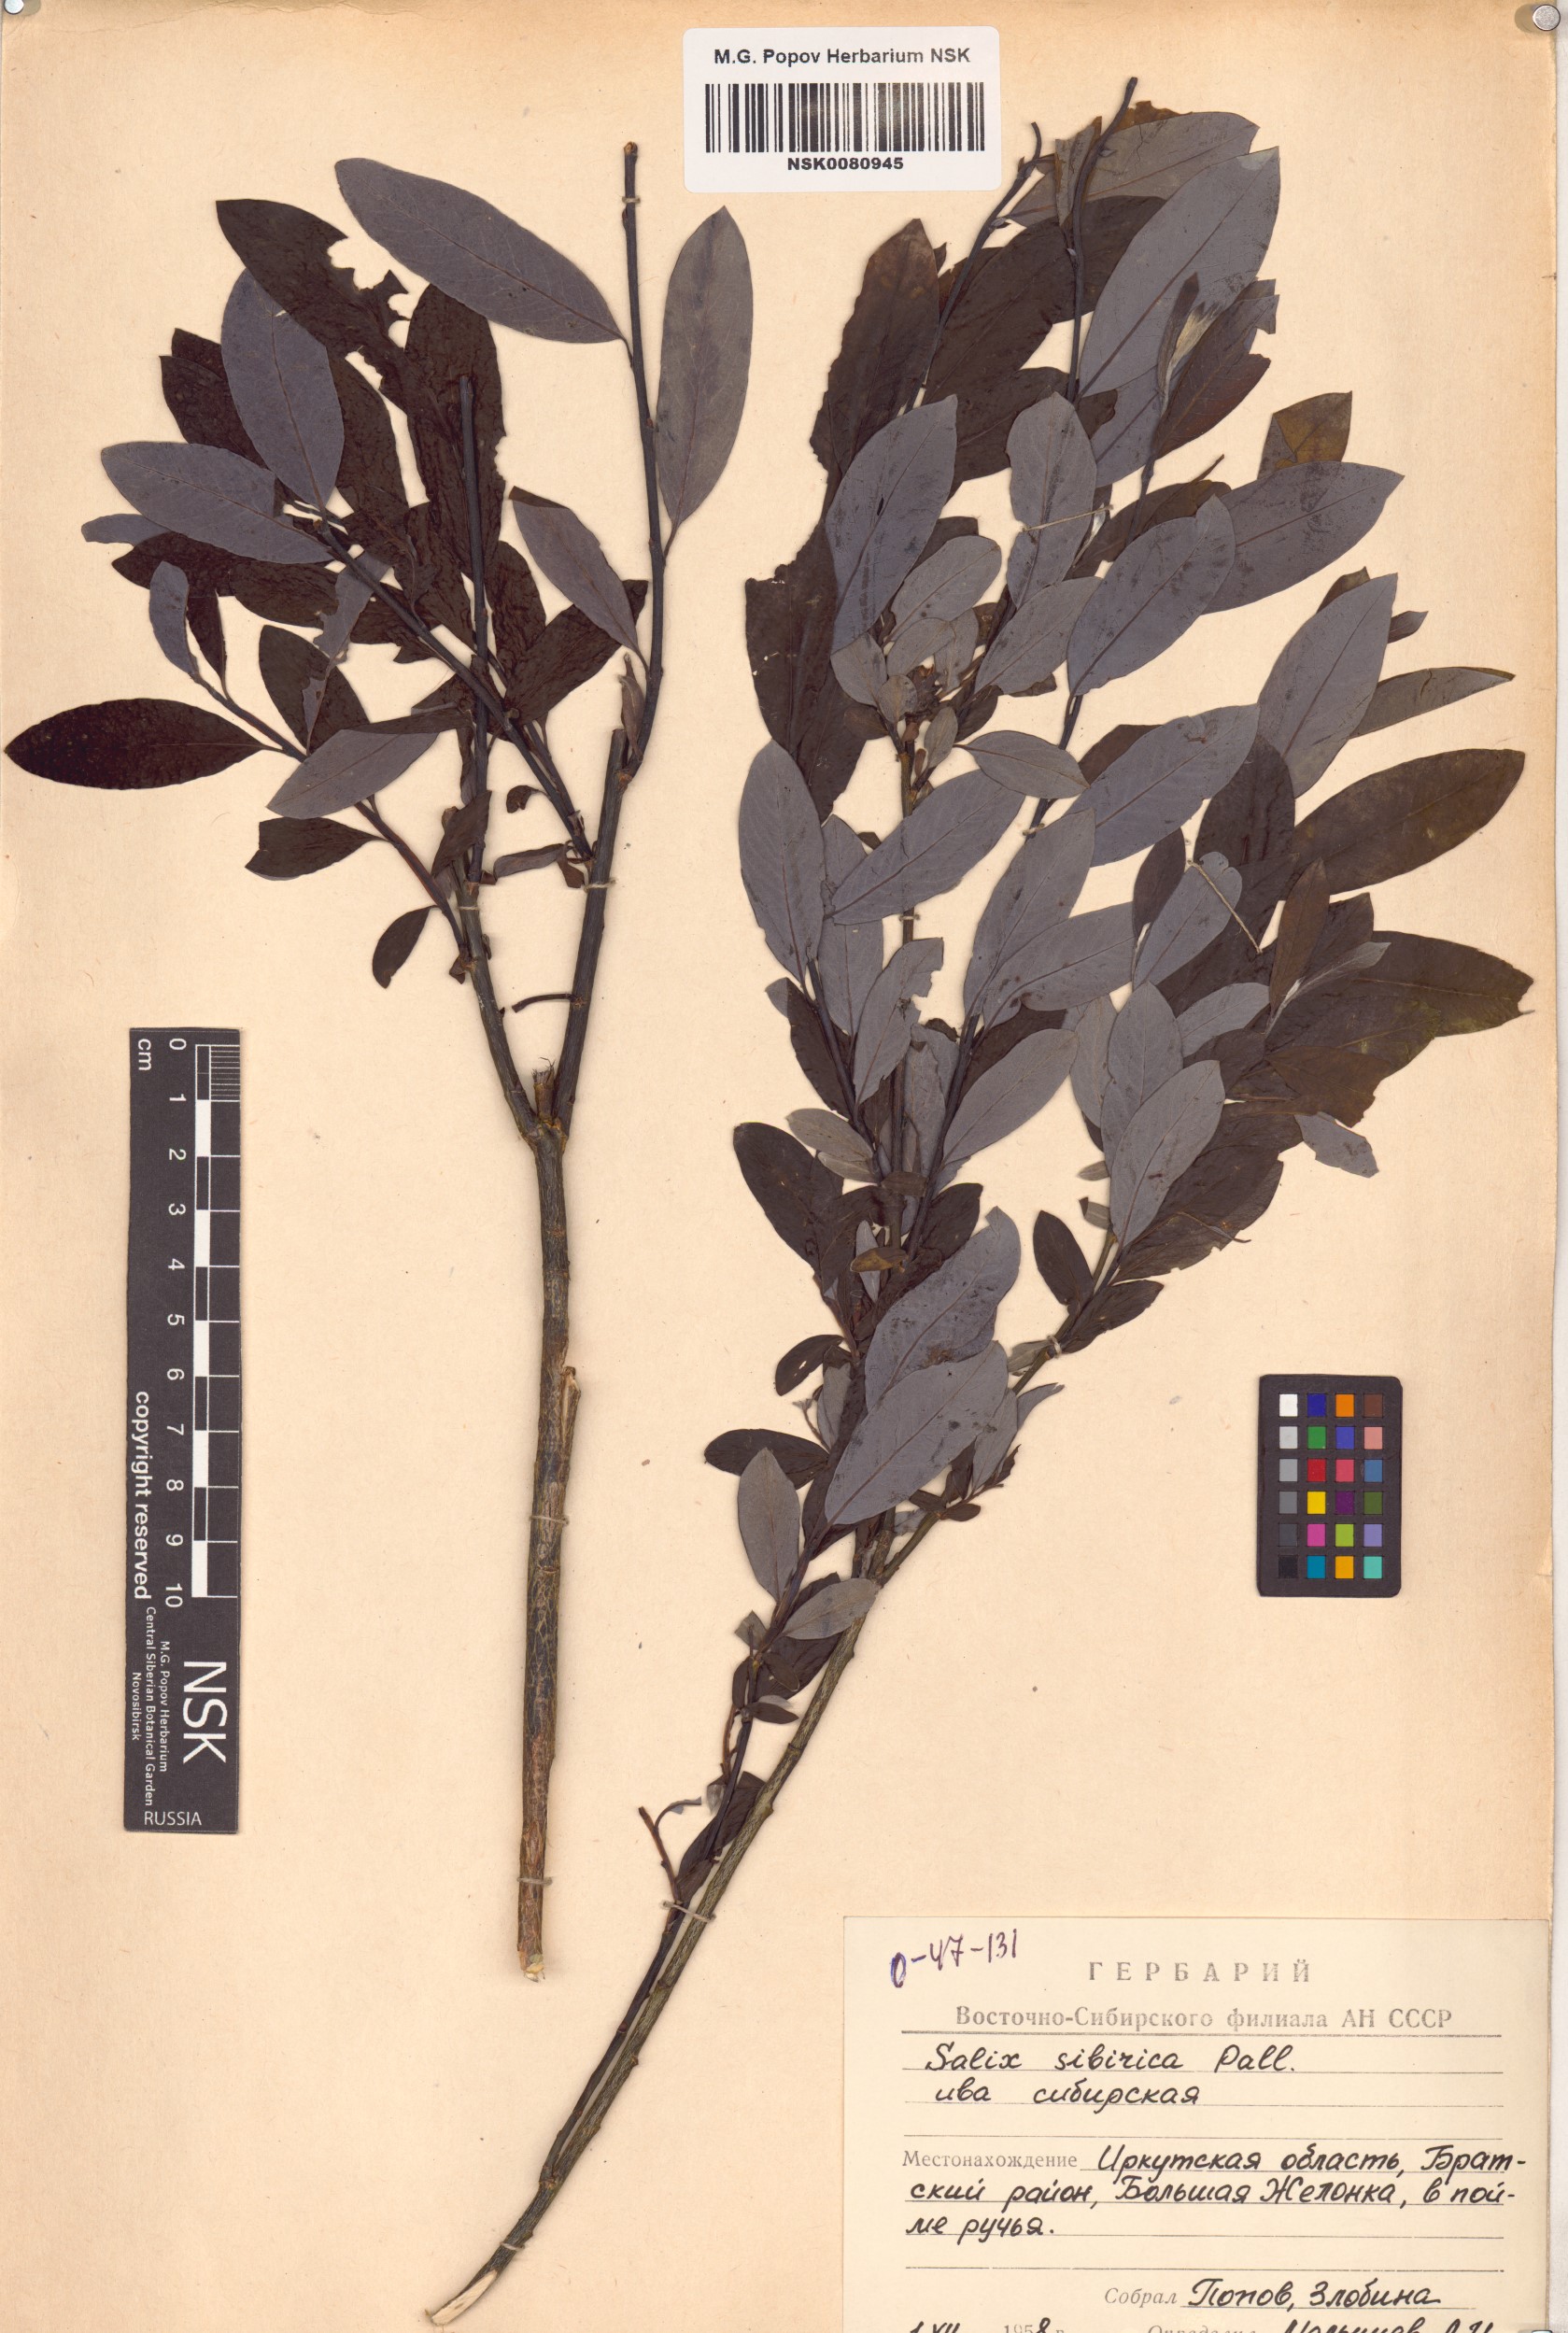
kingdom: Plantae
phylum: Tracheophyta
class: Magnoliopsida
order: Malpighiales
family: Salicaceae
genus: Salix
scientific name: Salix rosmarinifolia
